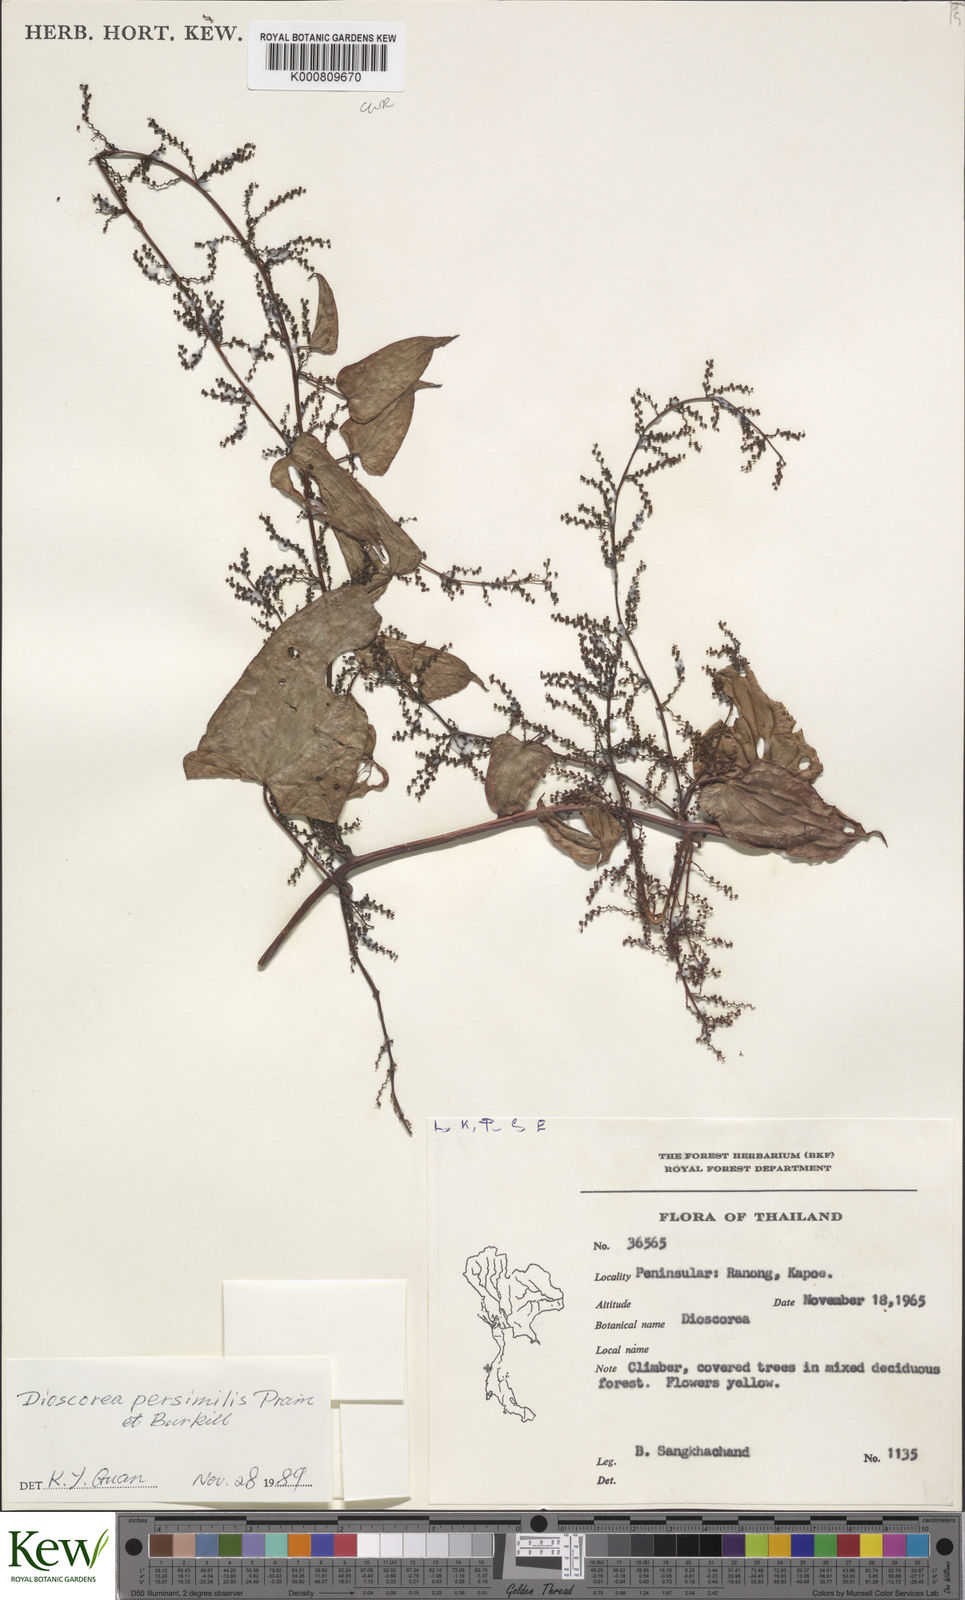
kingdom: Plantae
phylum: Tracheophyta
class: Liliopsida
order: Dioscoreales
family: Dioscoreaceae
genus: Dioscorea
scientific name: Dioscorea hamiltonii
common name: Mountain yam
